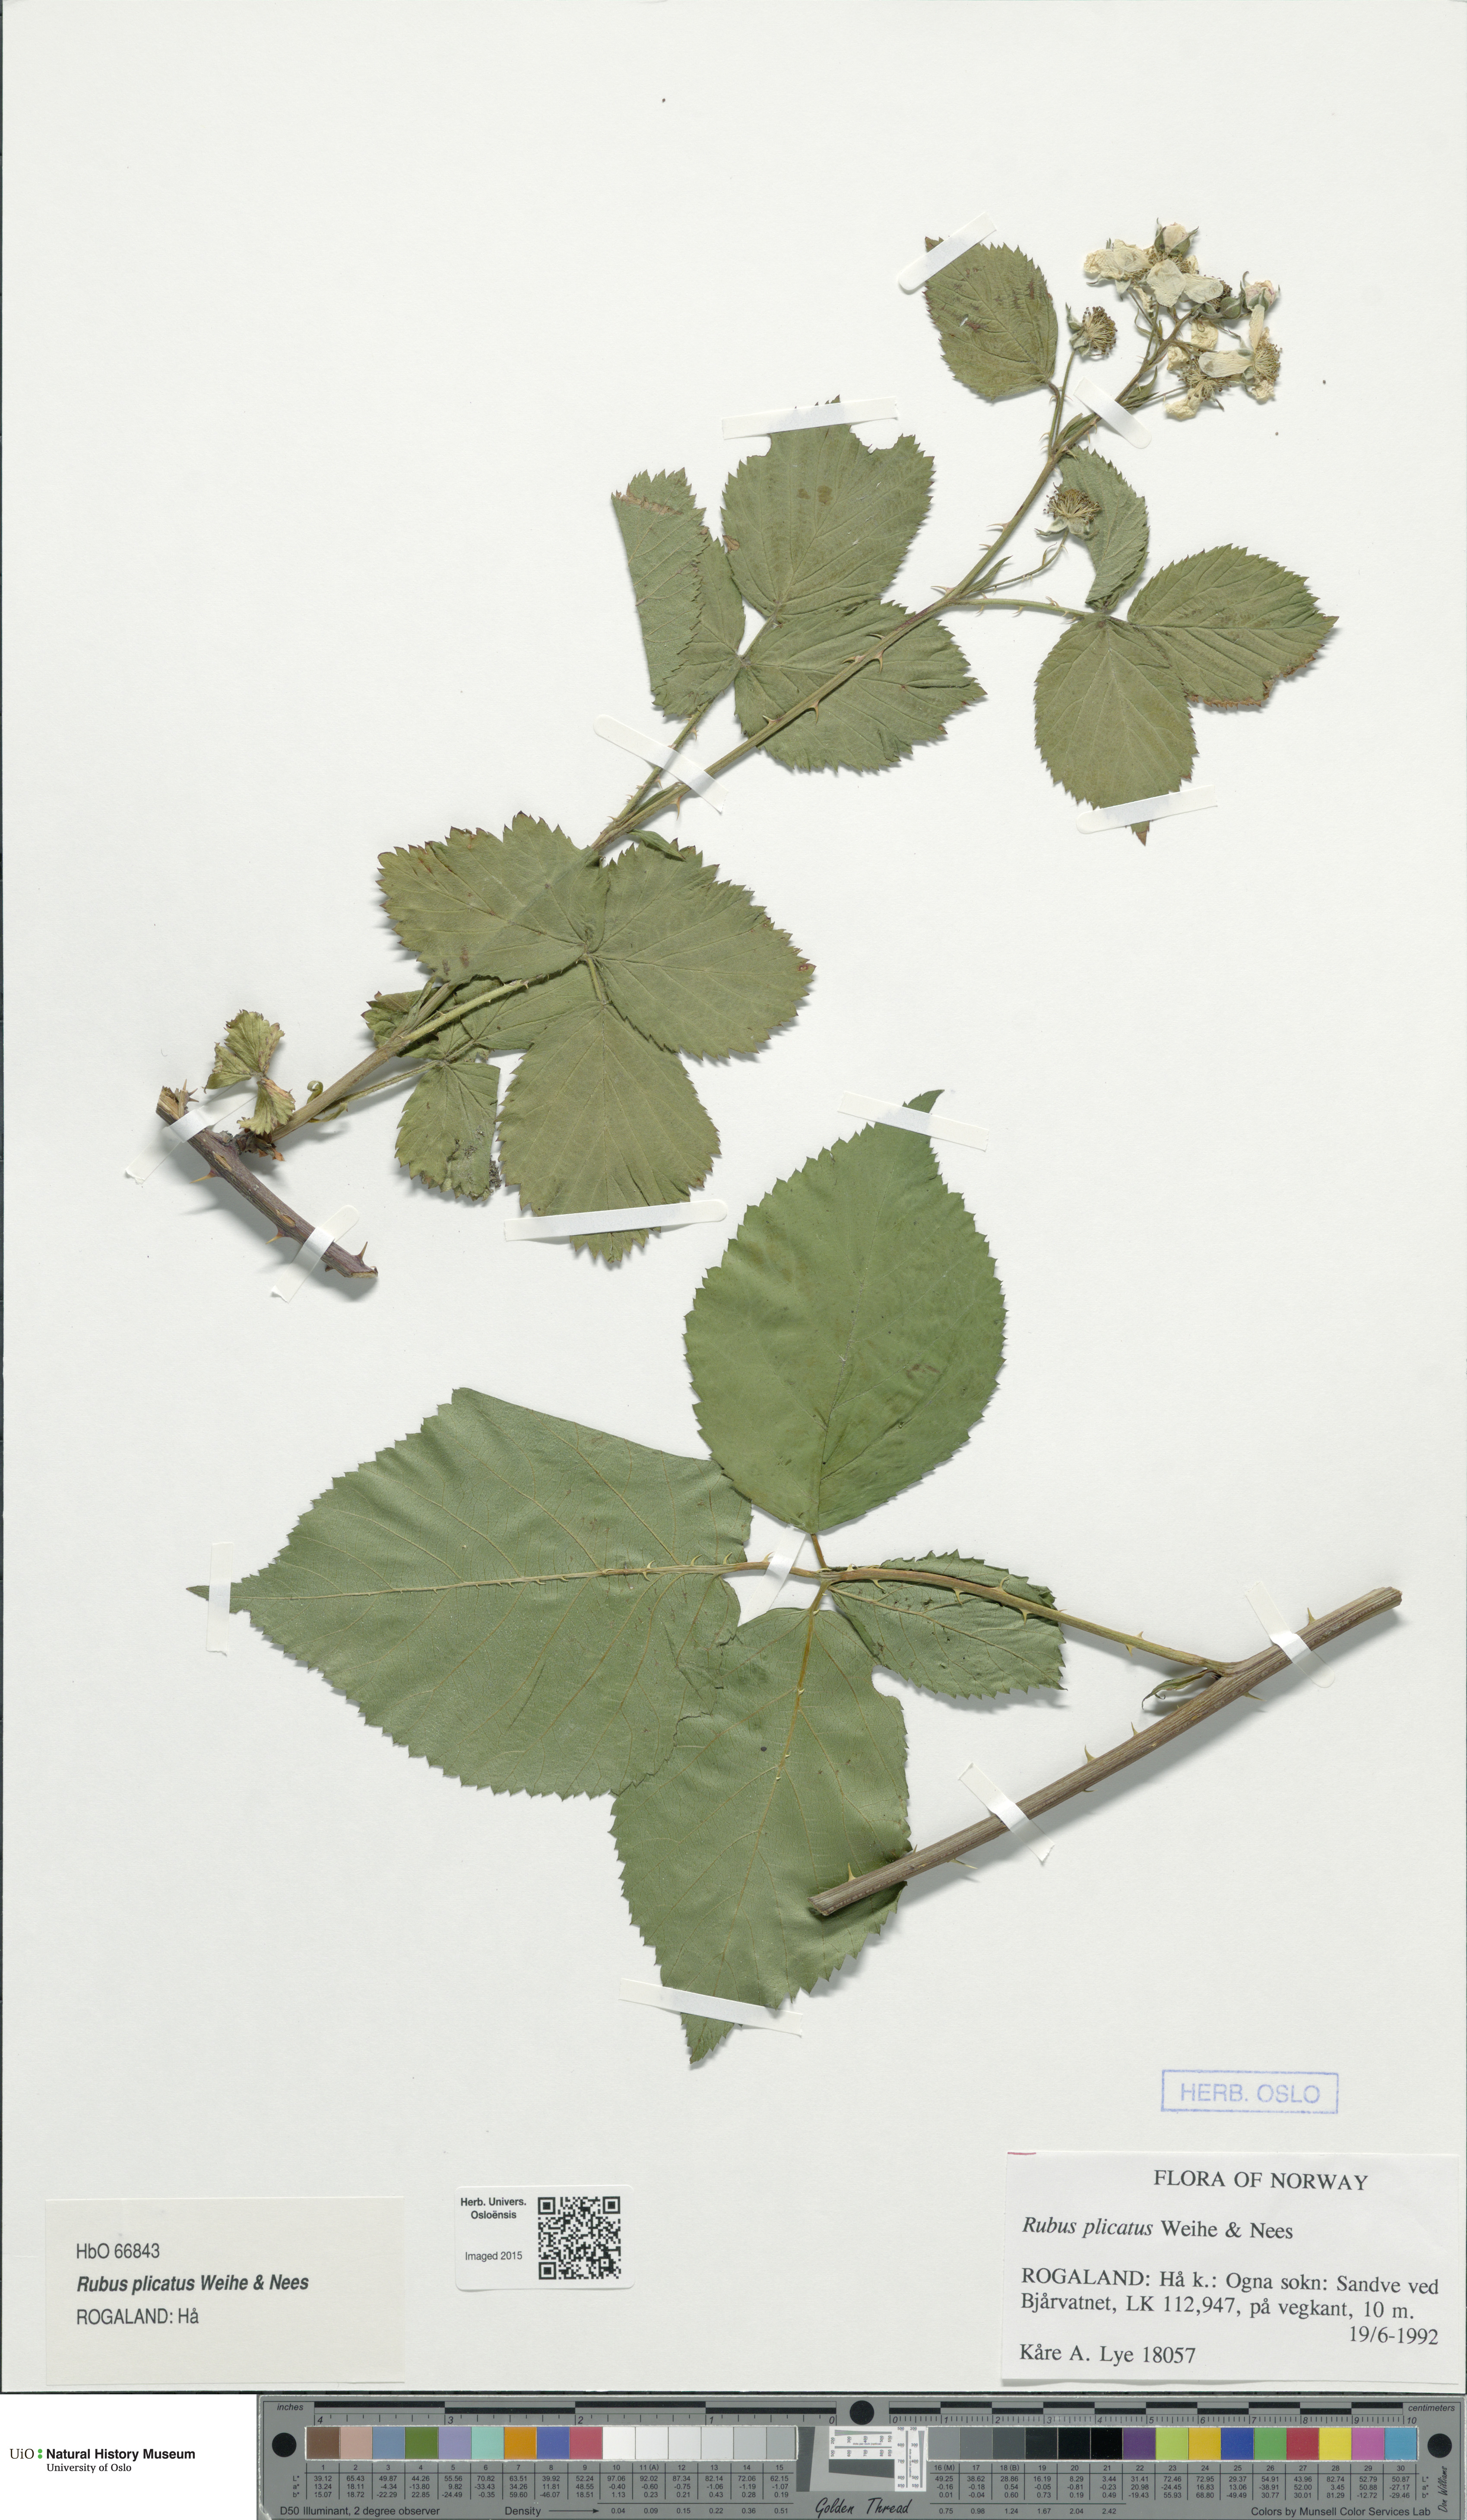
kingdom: Plantae
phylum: Tracheophyta
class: Magnoliopsida
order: Rosales
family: Rosaceae
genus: Rubus
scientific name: Rubus fruticosus
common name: Blackberry, bramble
